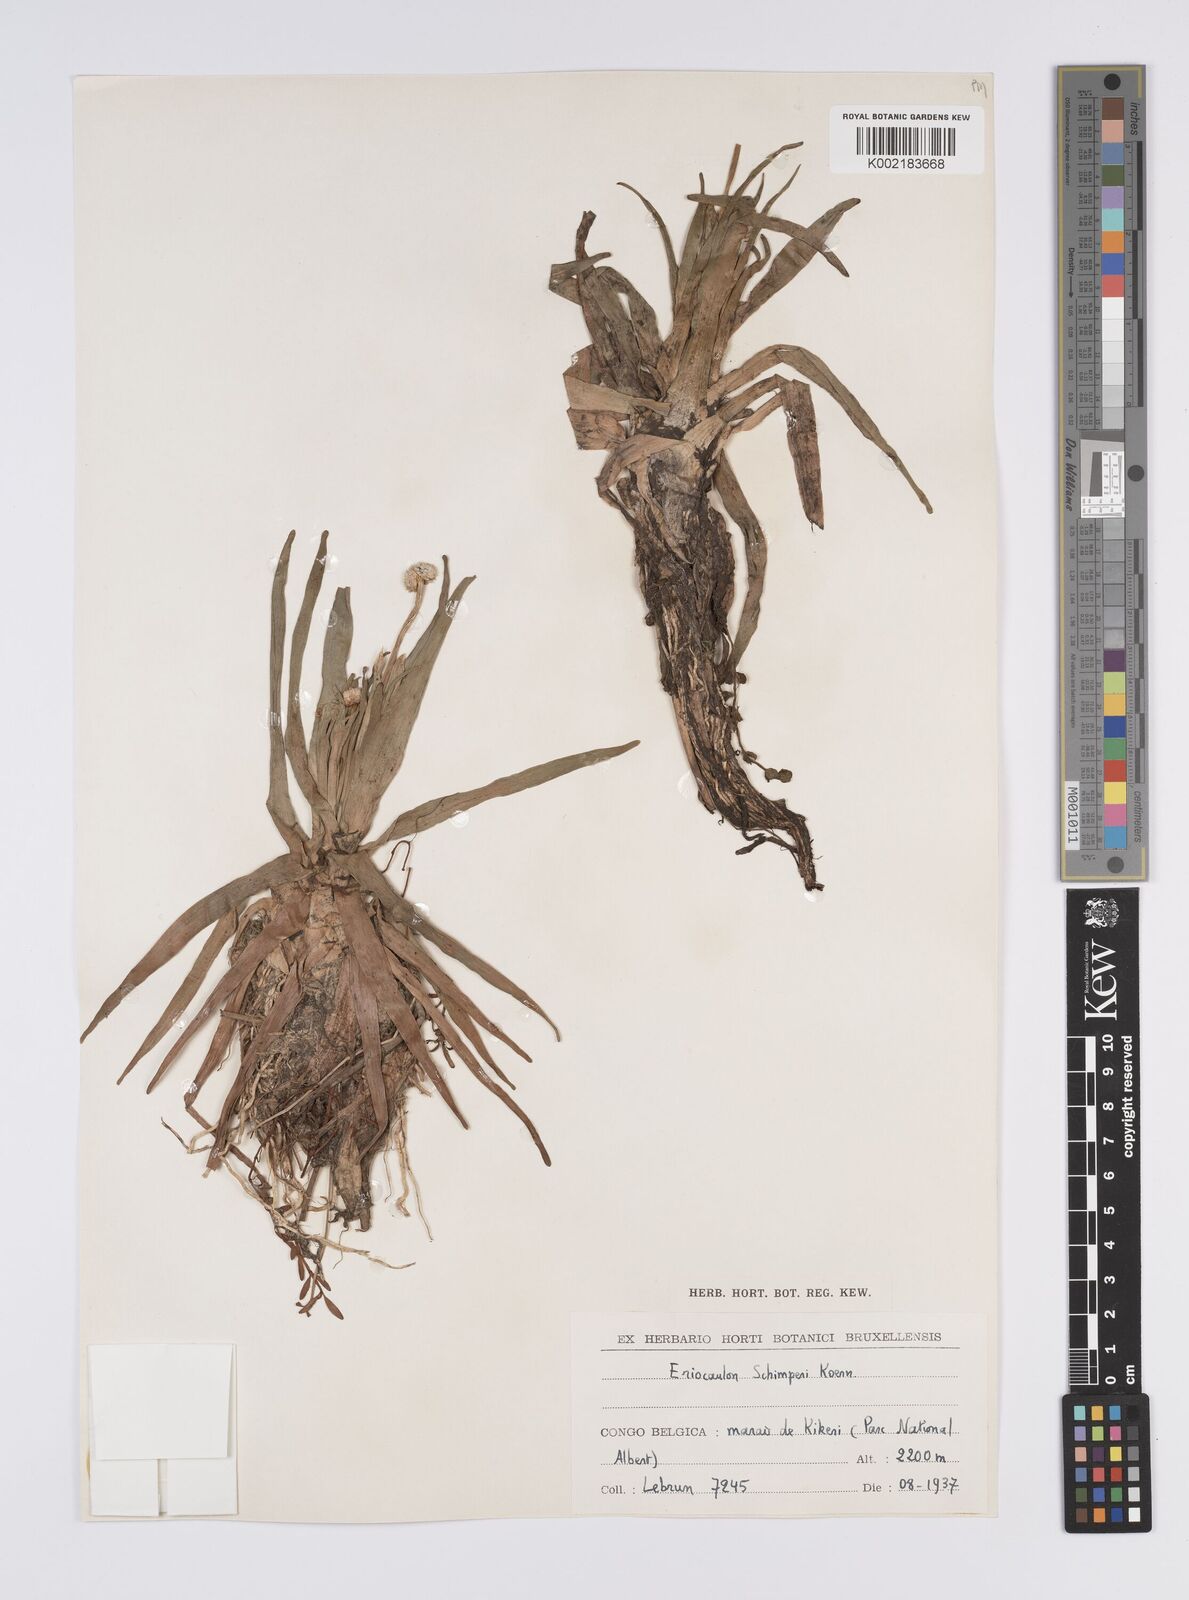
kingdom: Plantae
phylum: Tracheophyta
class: Liliopsida
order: Poales
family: Eriocaulaceae
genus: Eriocaulon
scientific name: Eriocaulon schimperi
